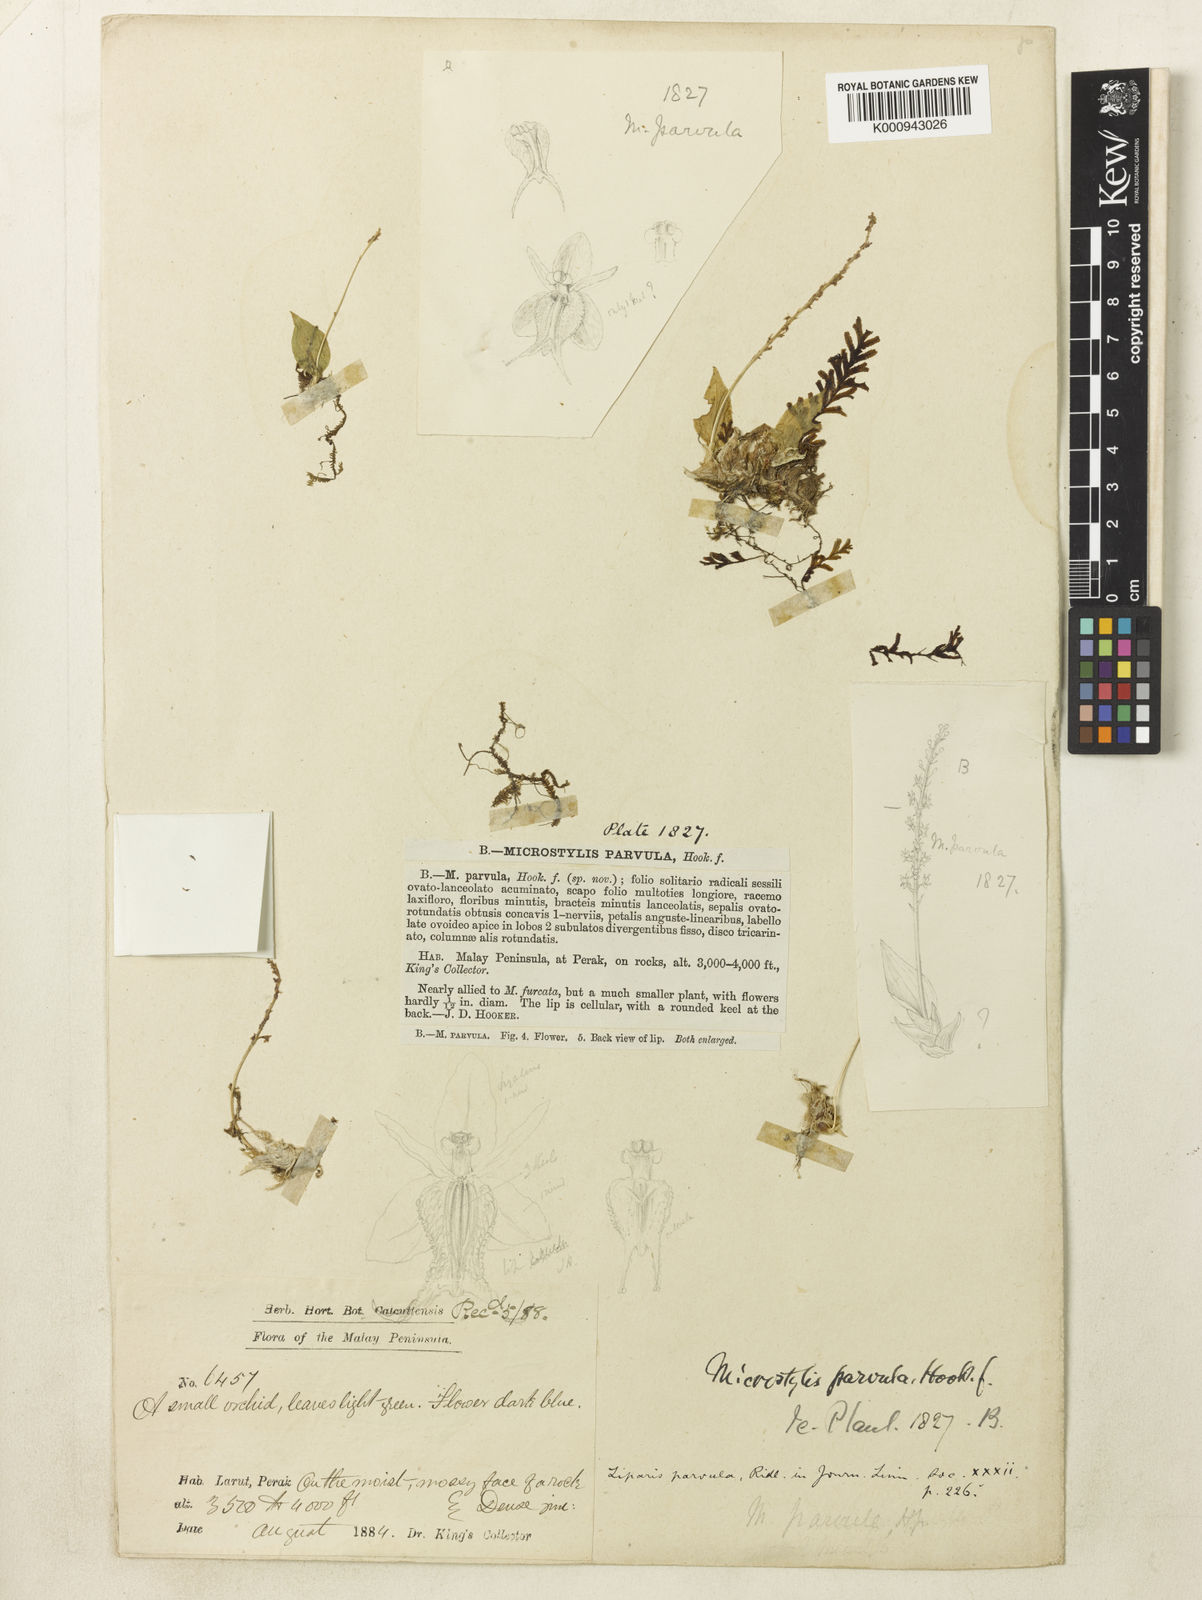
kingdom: Plantae
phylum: Tracheophyta
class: Liliopsida
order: Asparagales
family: Orchidaceae
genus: Oberonioides
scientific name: Oberonioides parvula
